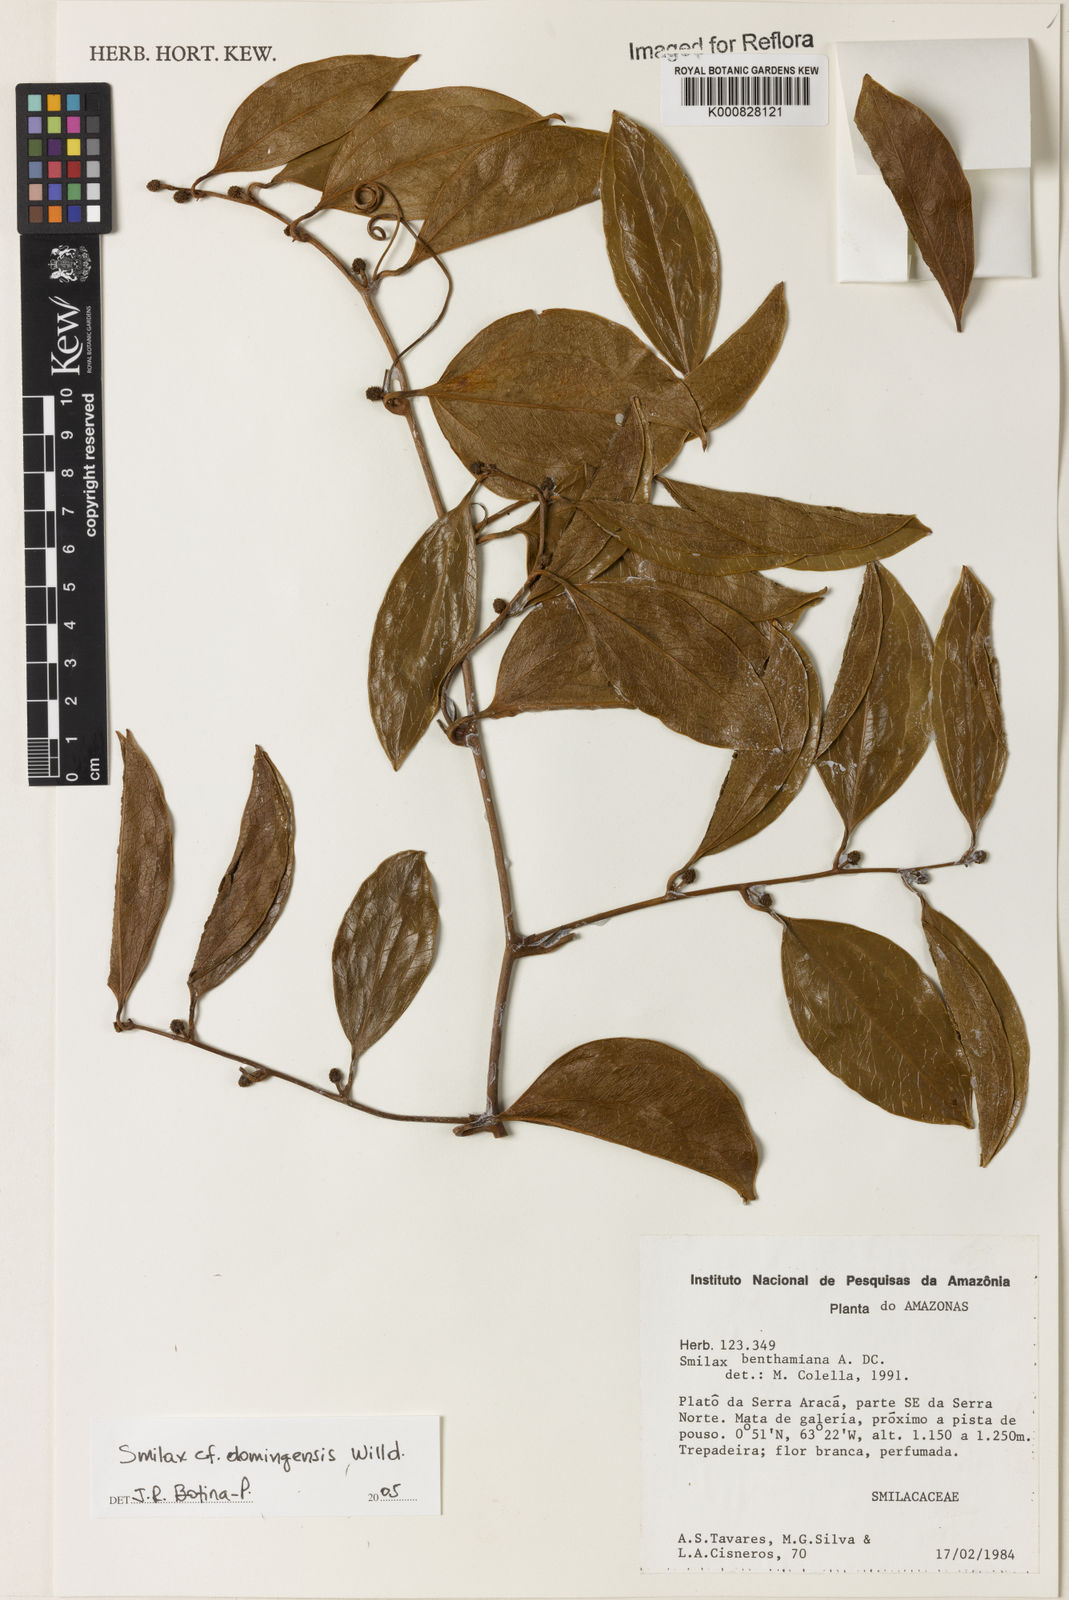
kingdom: Plantae
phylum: Tracheophyta
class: Liliopsida
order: Liliales
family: Smilacaceae
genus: Smilax
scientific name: Smilax domingensis
